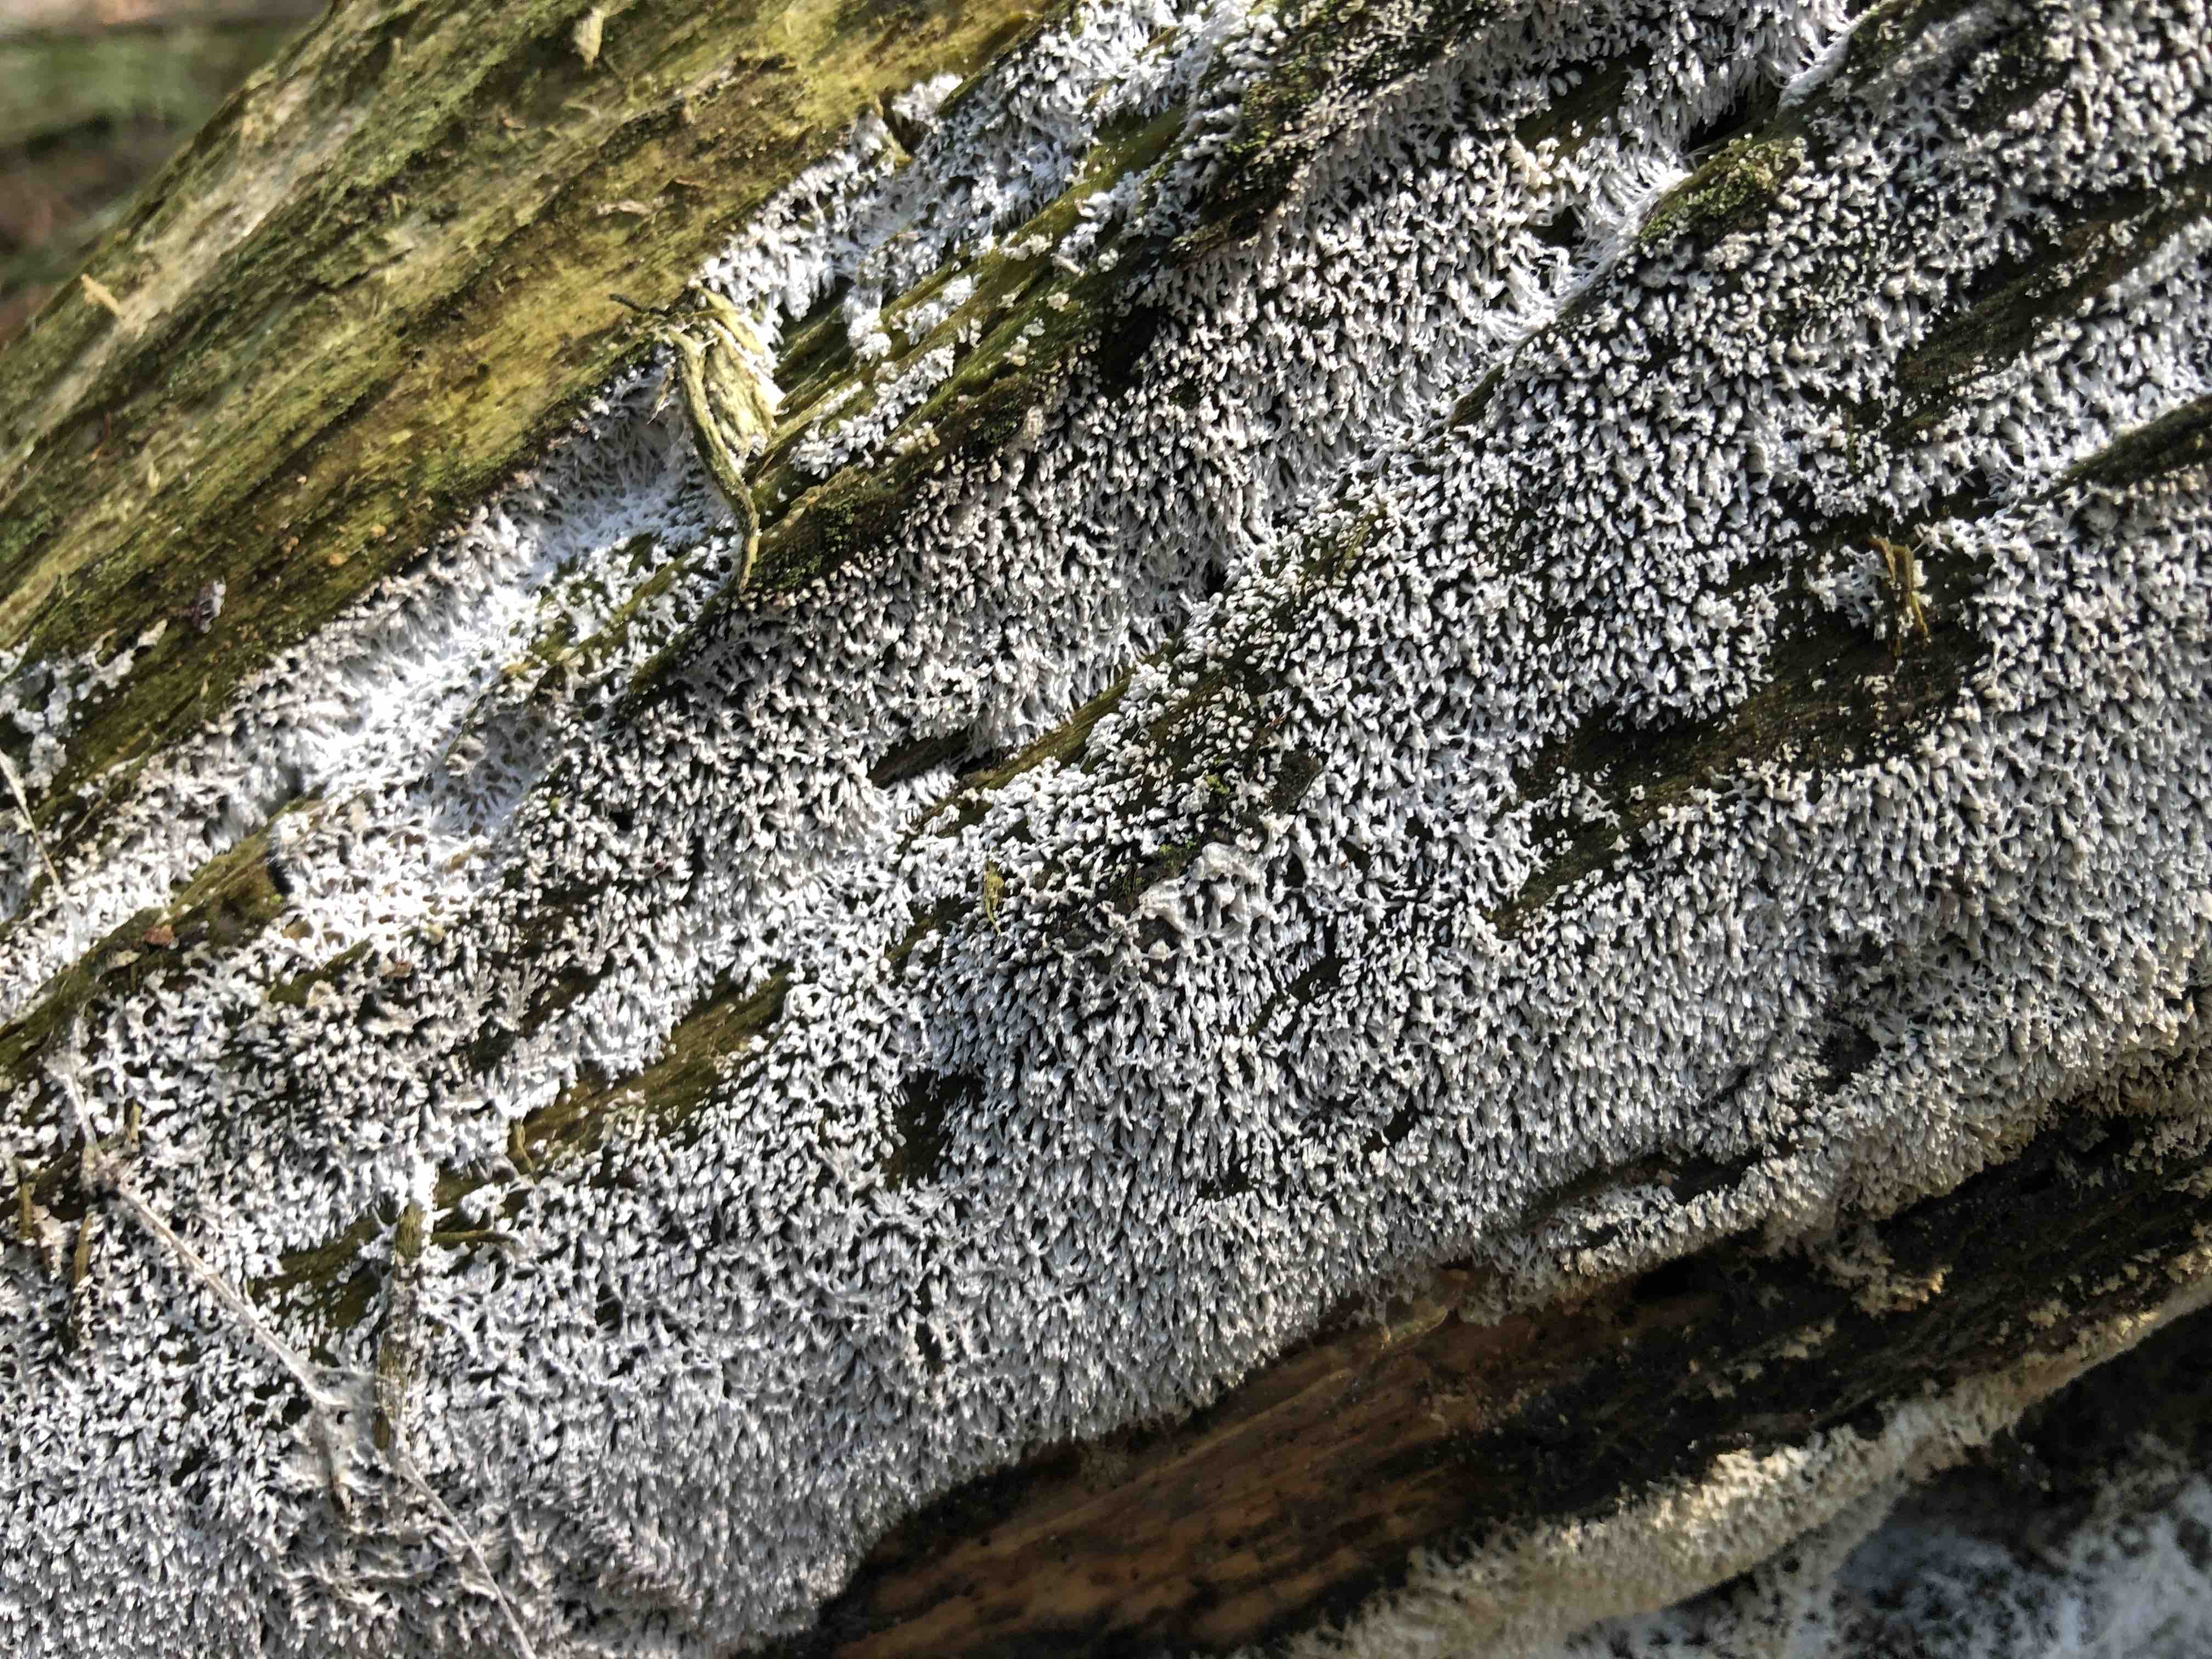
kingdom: Protozoa
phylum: Mycetozoa
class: Protosteliomycetes
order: Ceratiomyxales
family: Ceratiomyxaceae
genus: Ceratiomyxa
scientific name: Ceratiomyxa fruticulosa
